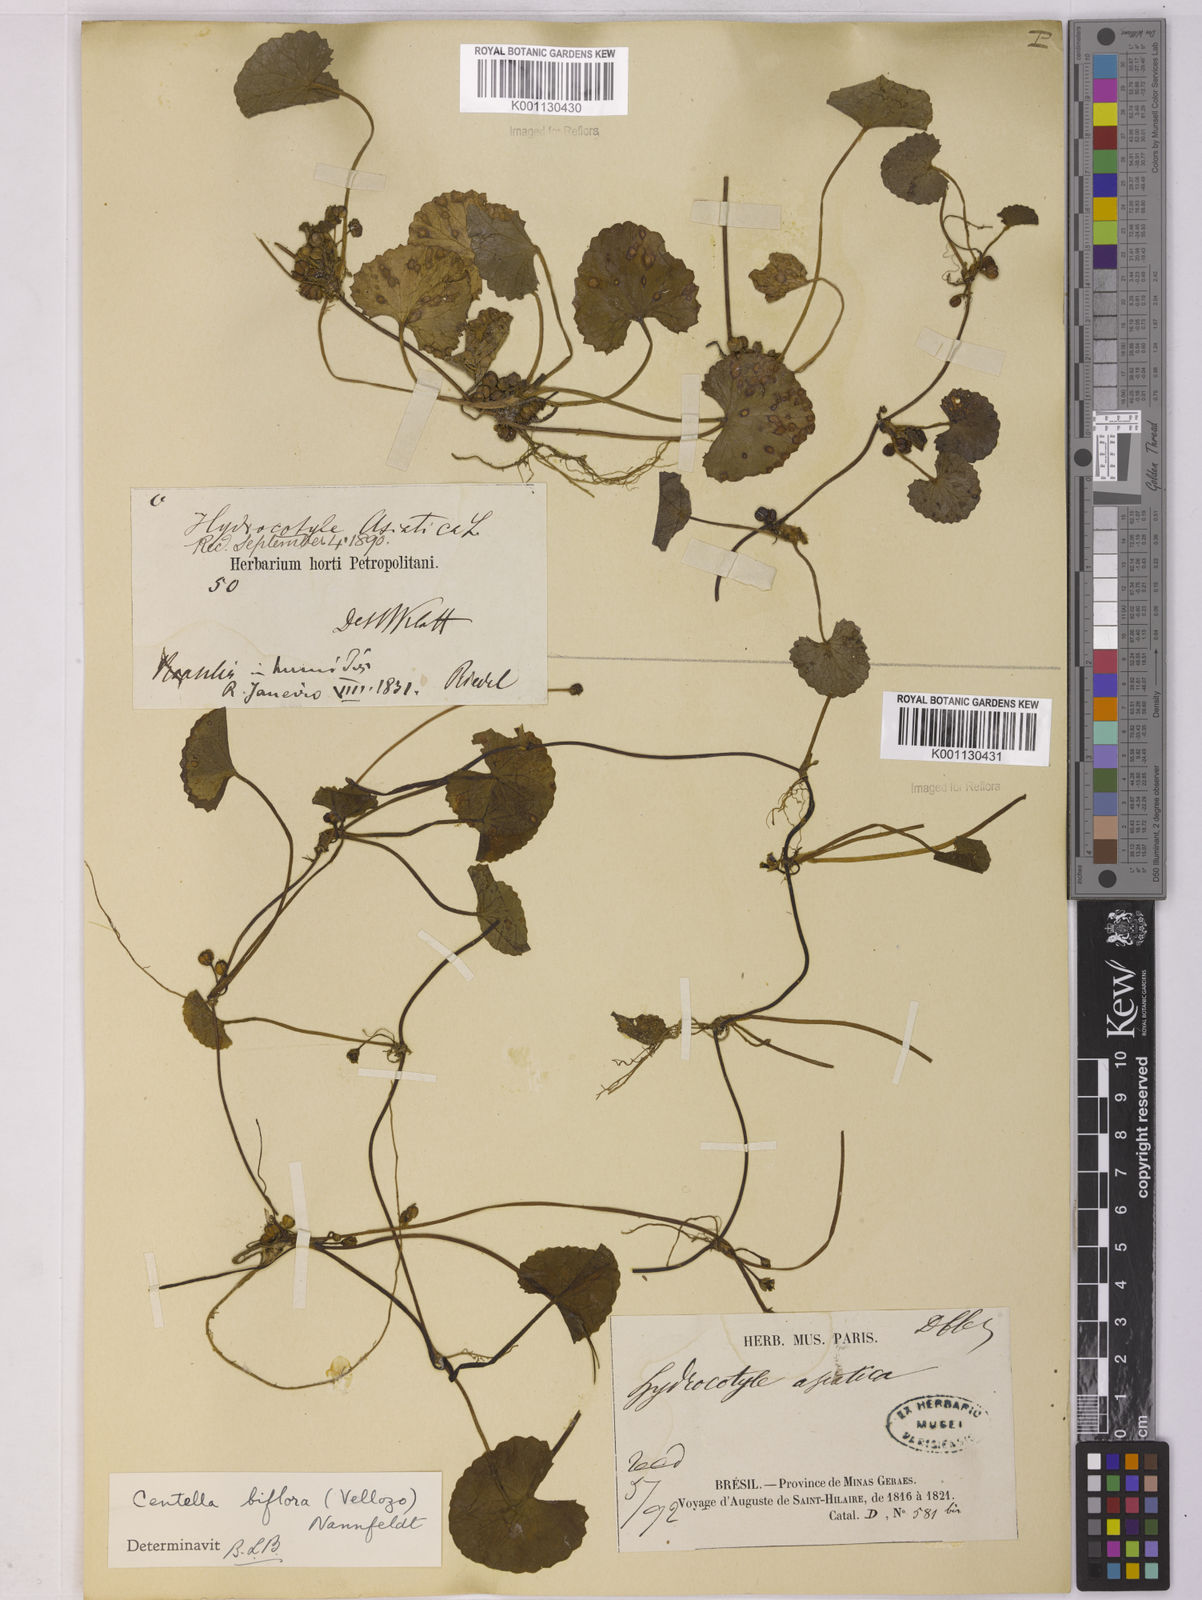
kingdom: Plantae
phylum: Tracheophyta
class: Magnoliopsida
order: Apiales
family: Apiaceae
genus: Centella
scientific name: Centella erecta
